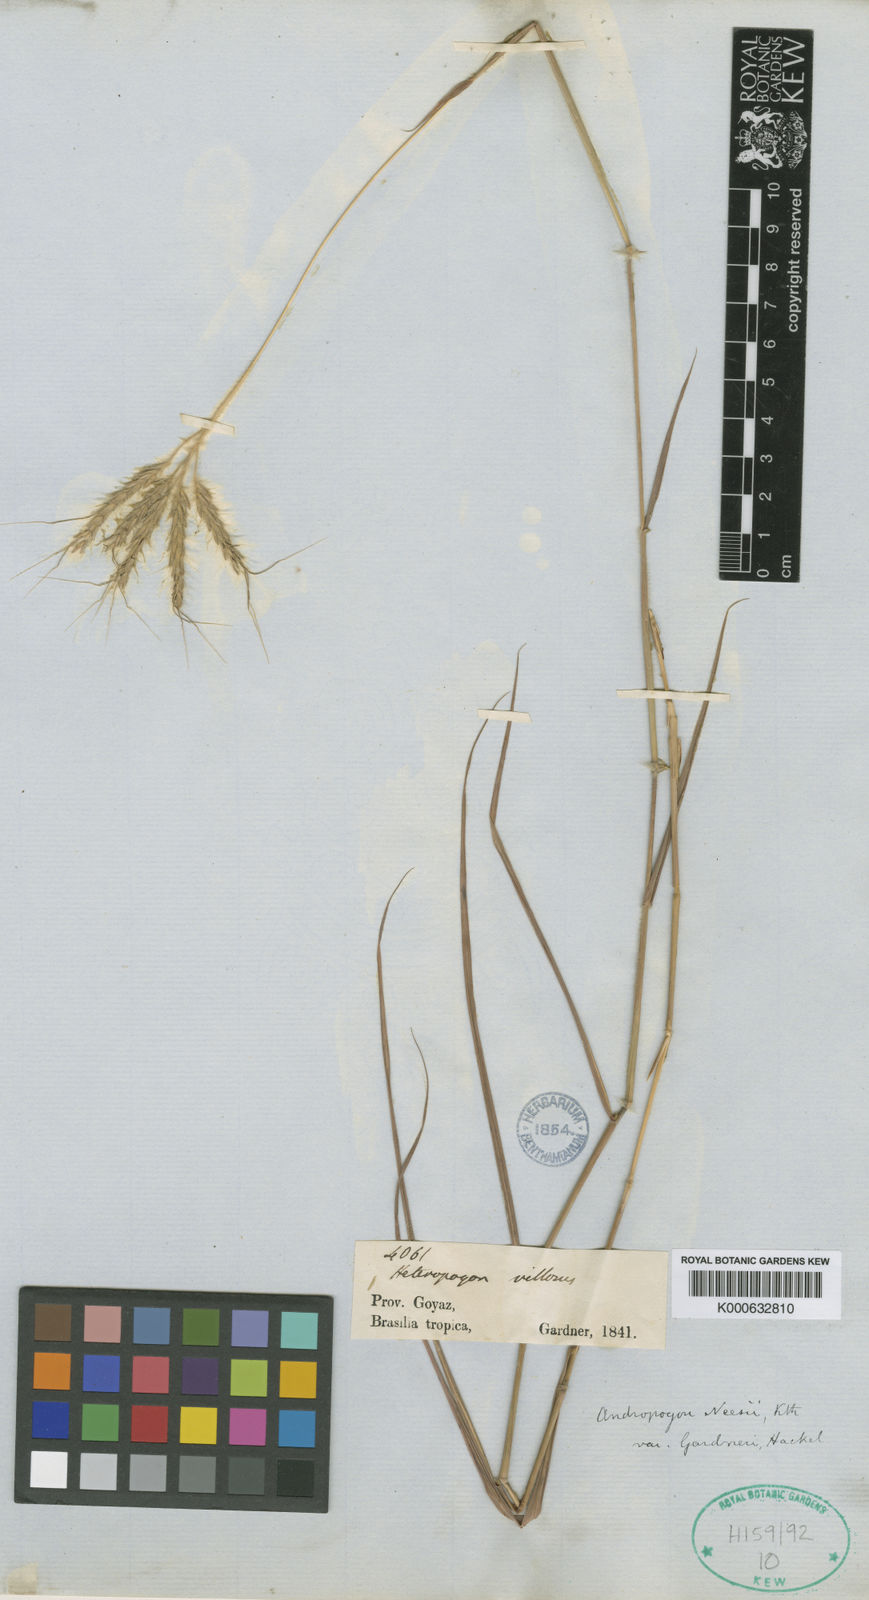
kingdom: Plantae
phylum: Tracheophyta
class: Liliopsida
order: Poales
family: Poaceae
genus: Agenium
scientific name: Agenium villosum
